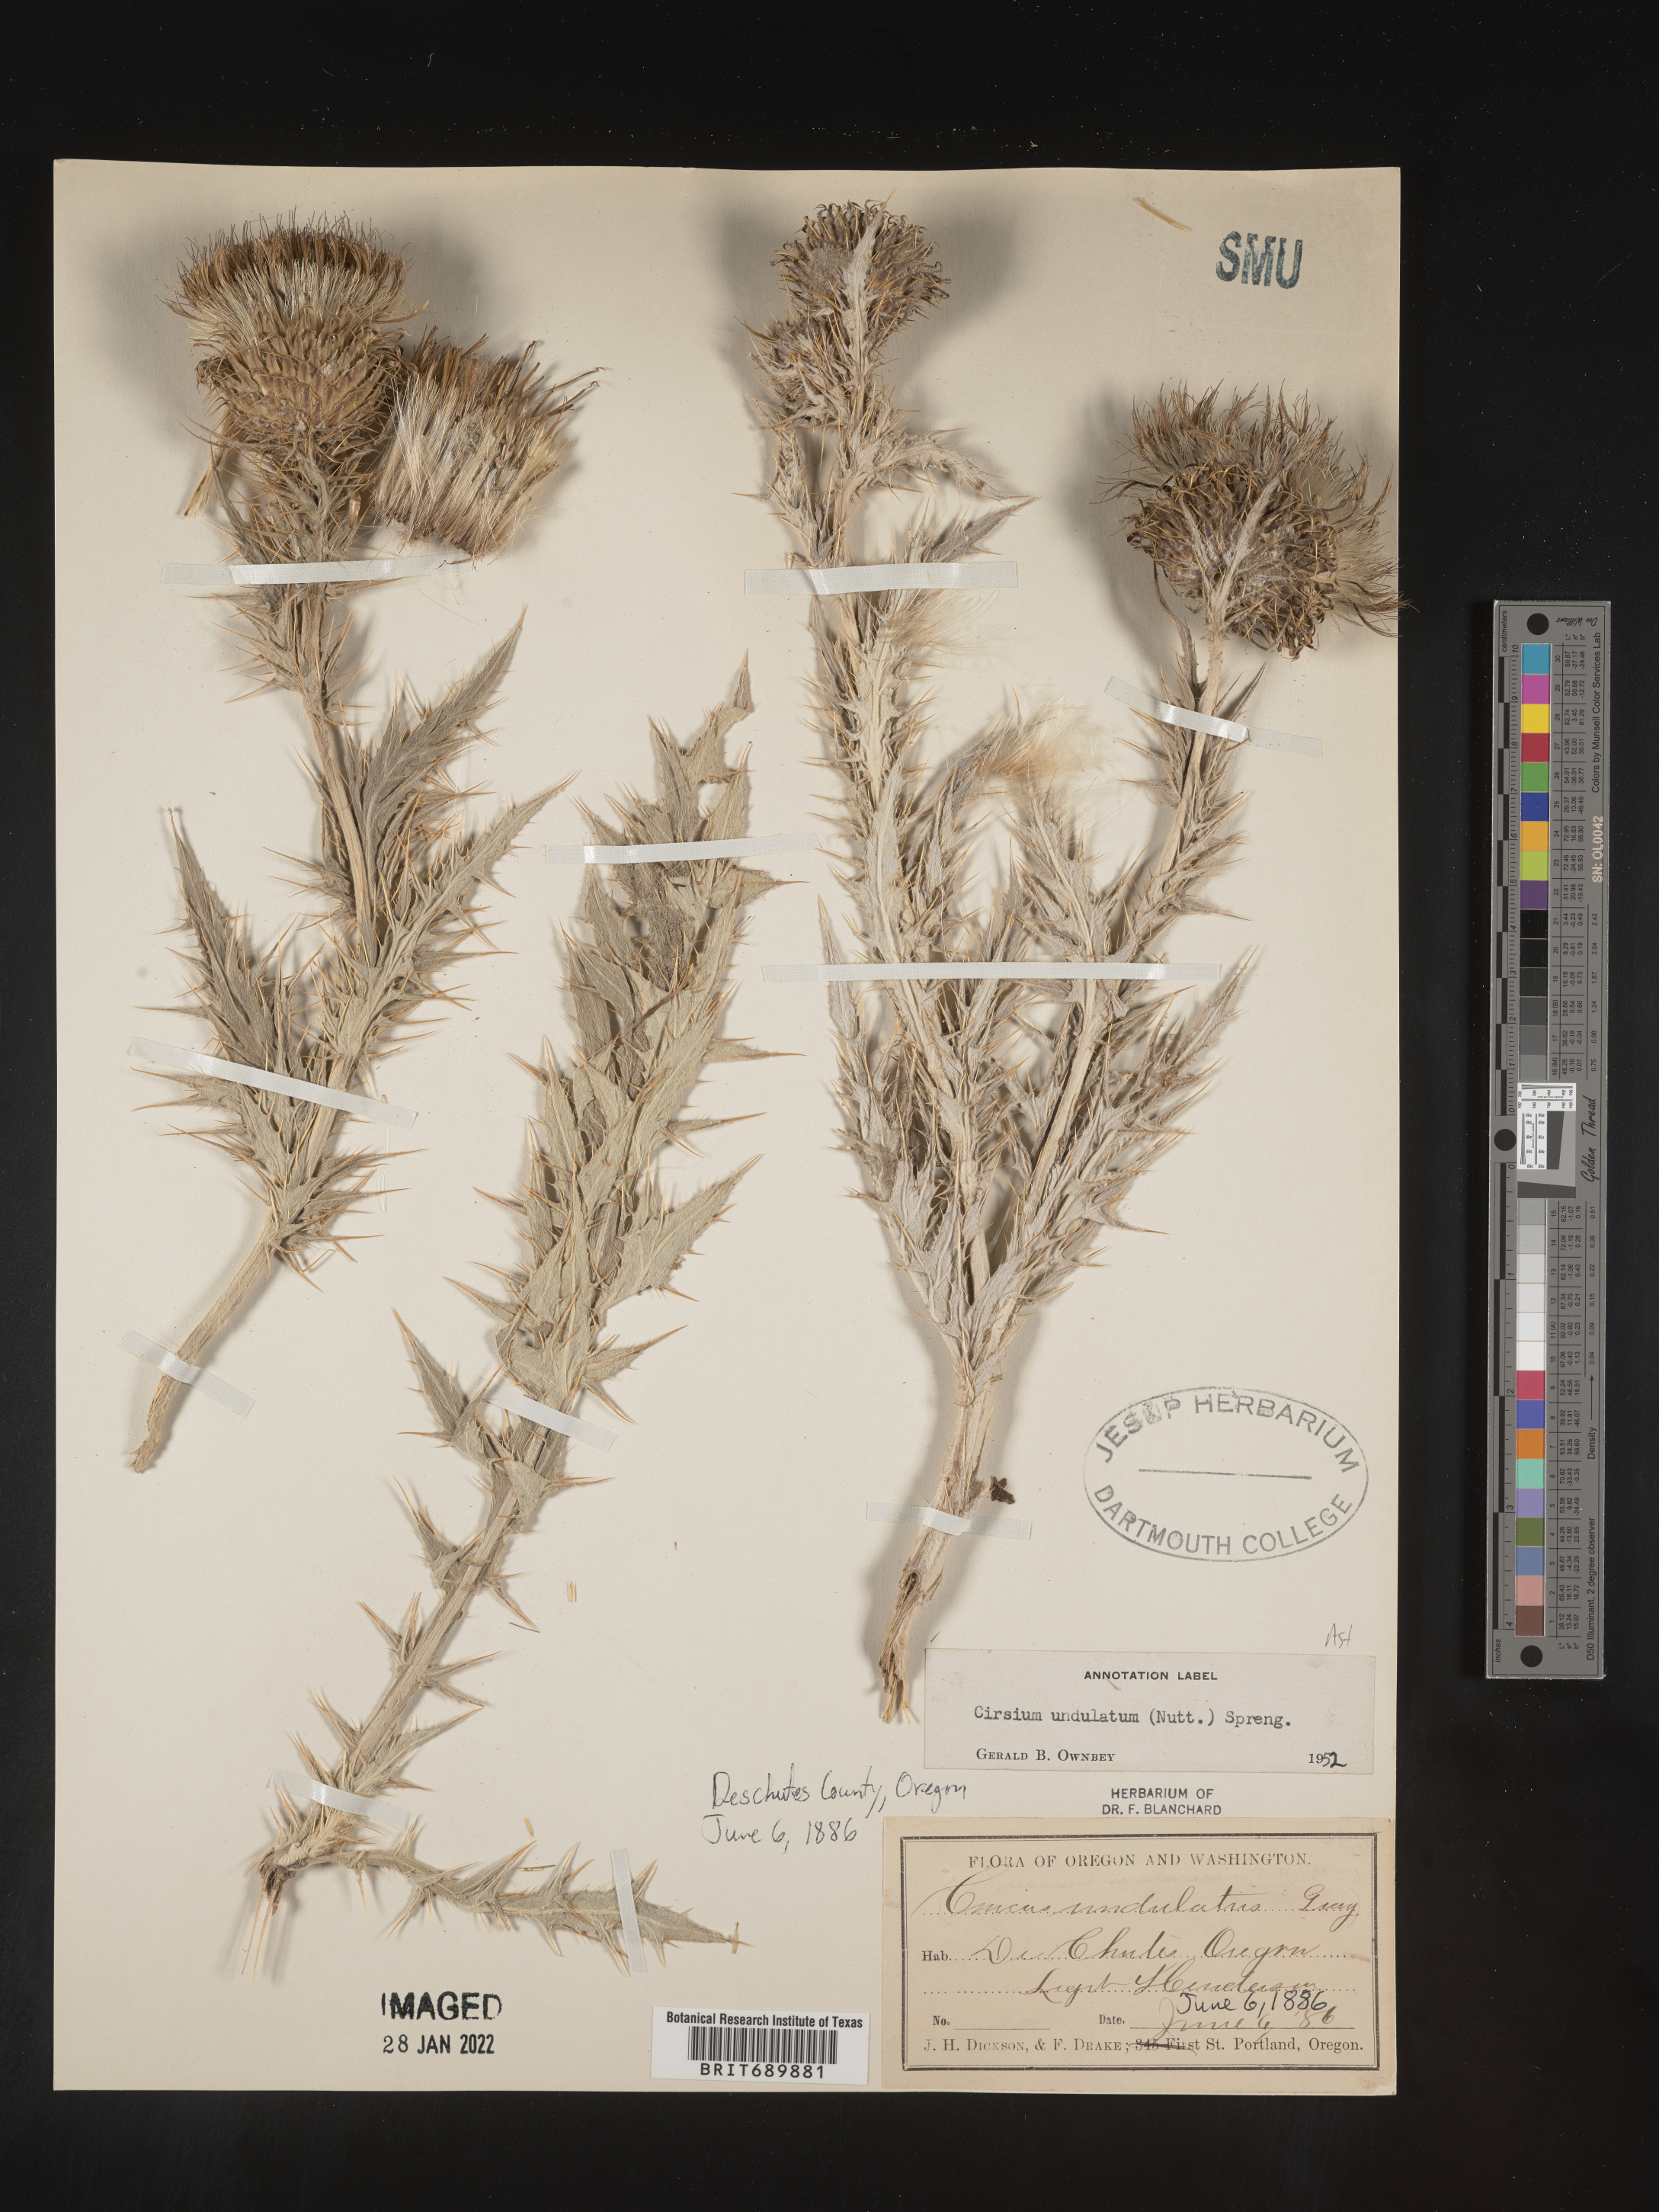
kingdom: Plantae
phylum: Tracheophyta
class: Magnoliopsida
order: Asterales
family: Asteraceae
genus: Cirsium
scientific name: Cirsium undulatum
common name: Pasture thistle
